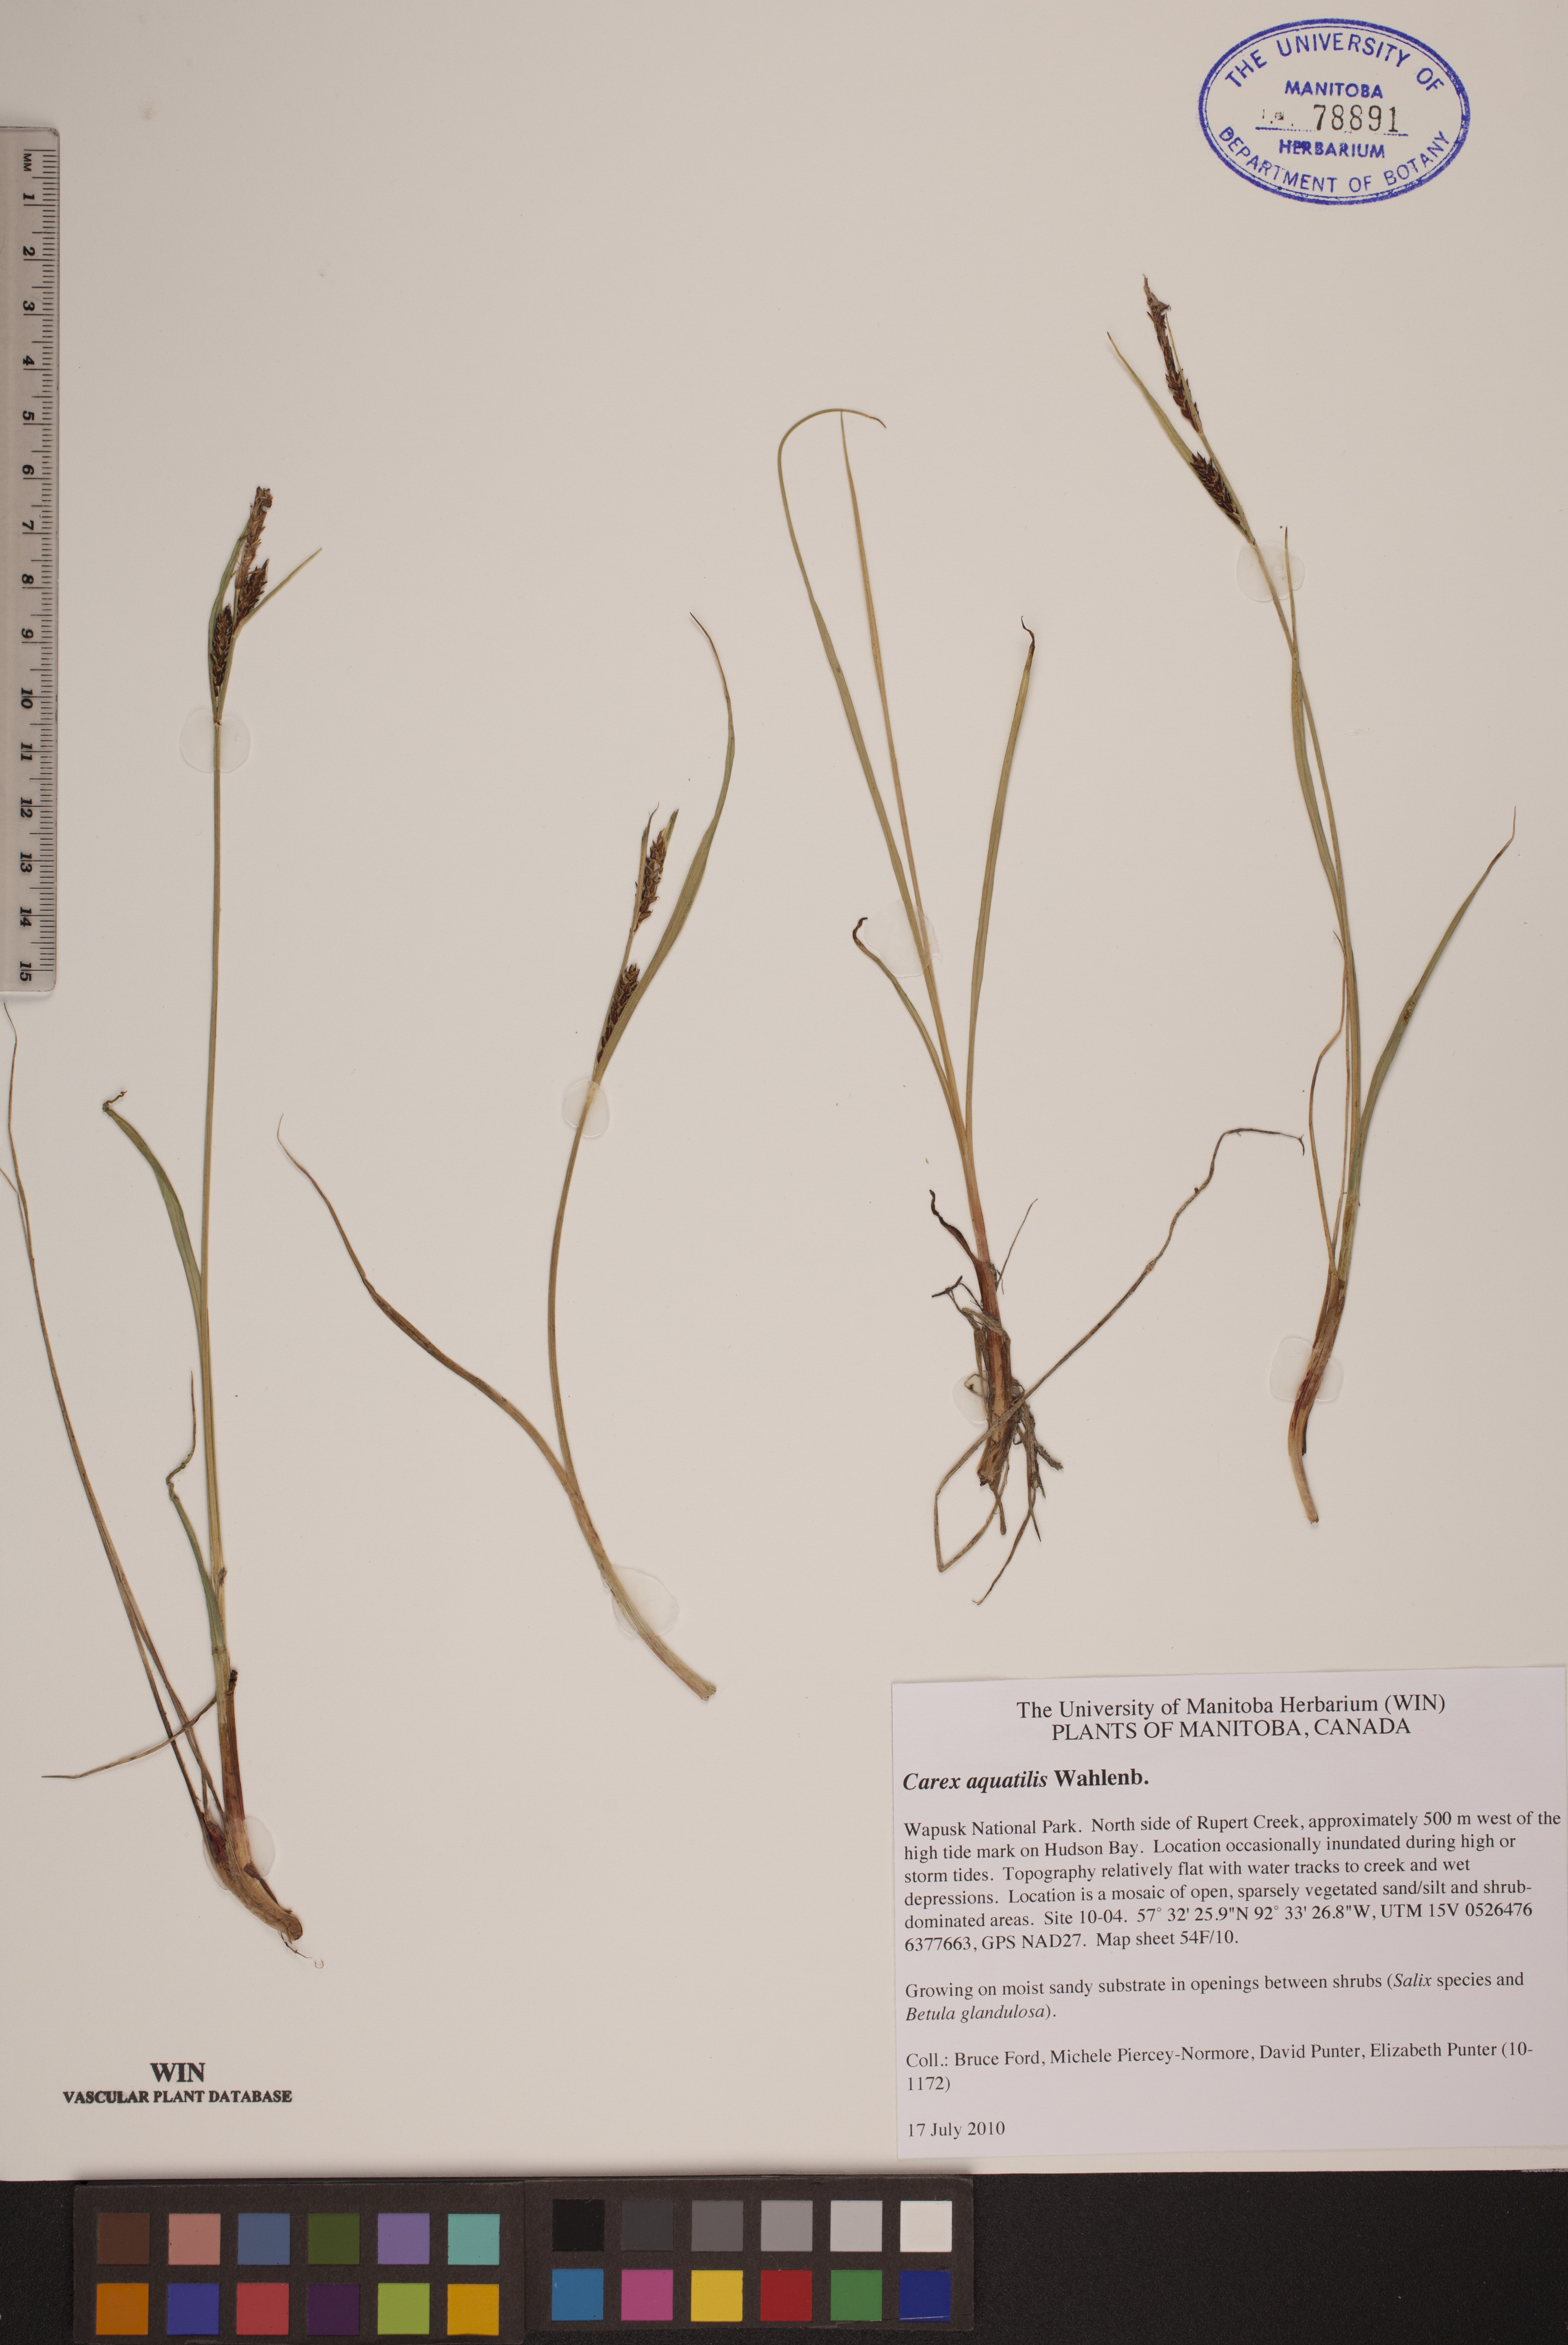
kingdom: Plantae
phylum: Tracheophyta
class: Liliopsida
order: Poales
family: Cyperaceae
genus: Carex
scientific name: Carex aquatilis
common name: Water sedge
